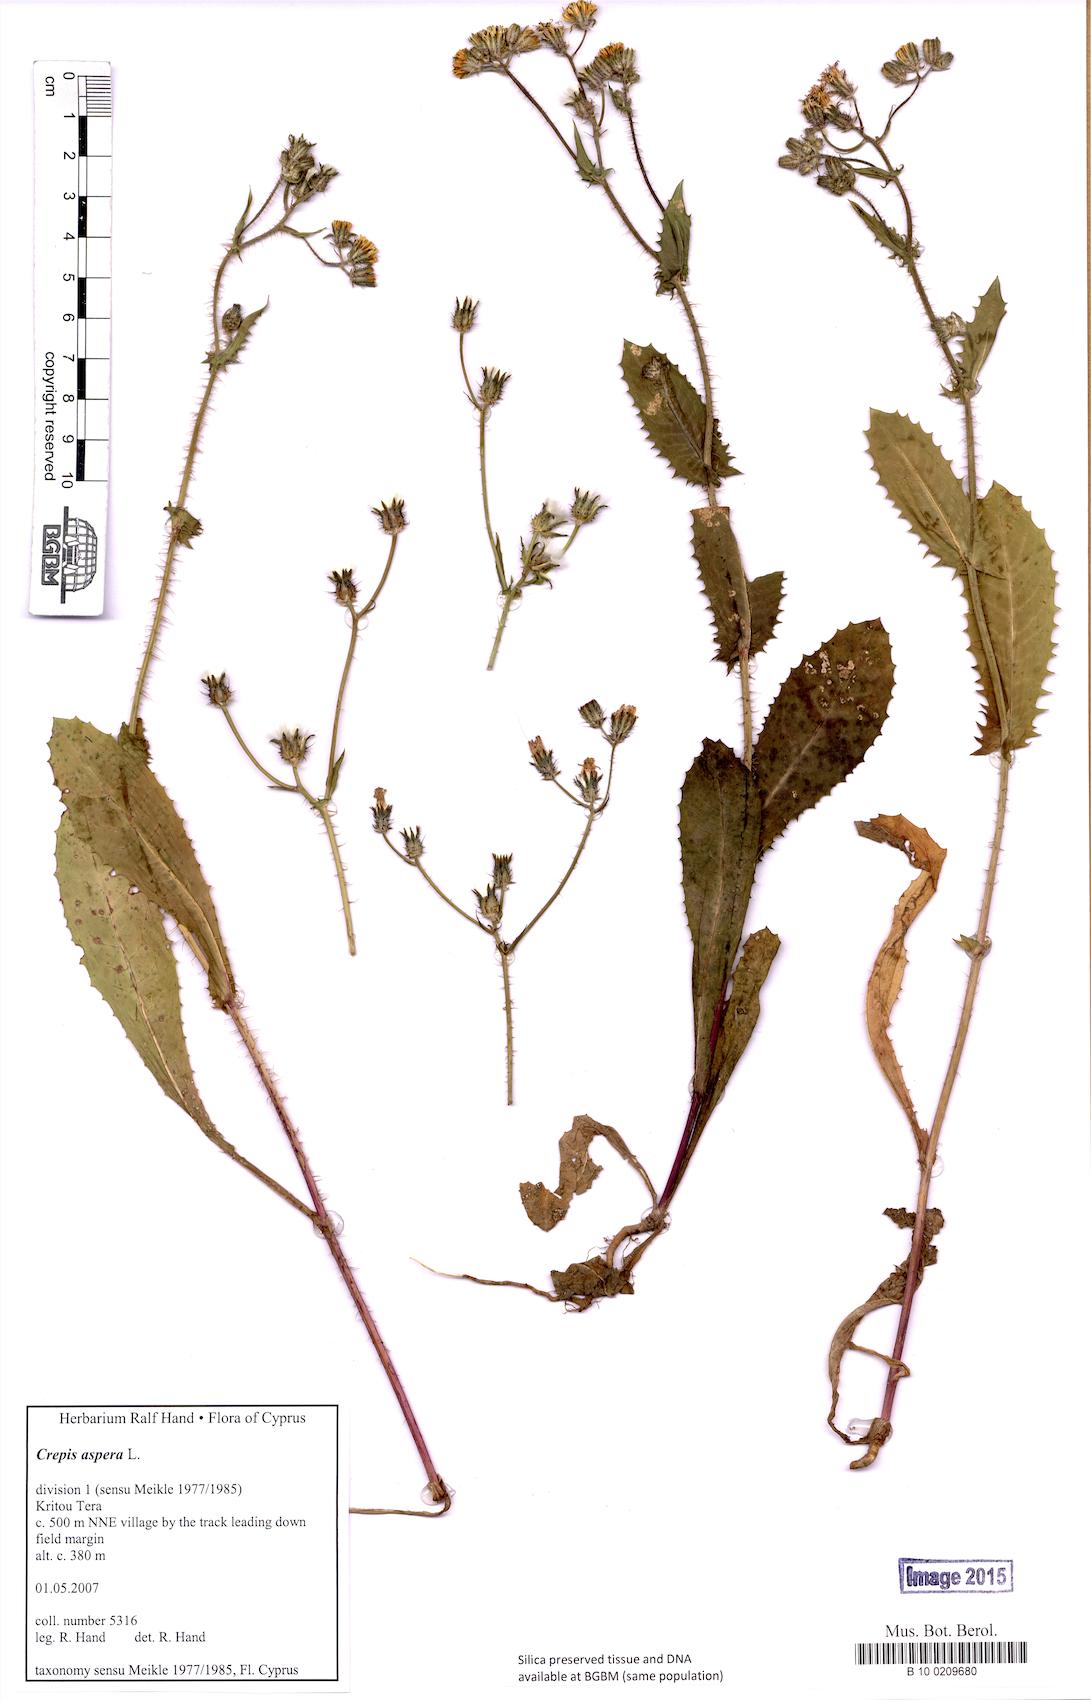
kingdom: Plantae
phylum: Tracheophyta
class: Magnoliopsida
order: Asterales
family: Asteraceae
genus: Crepis
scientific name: Crepis aspera
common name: Hawk's-beard
